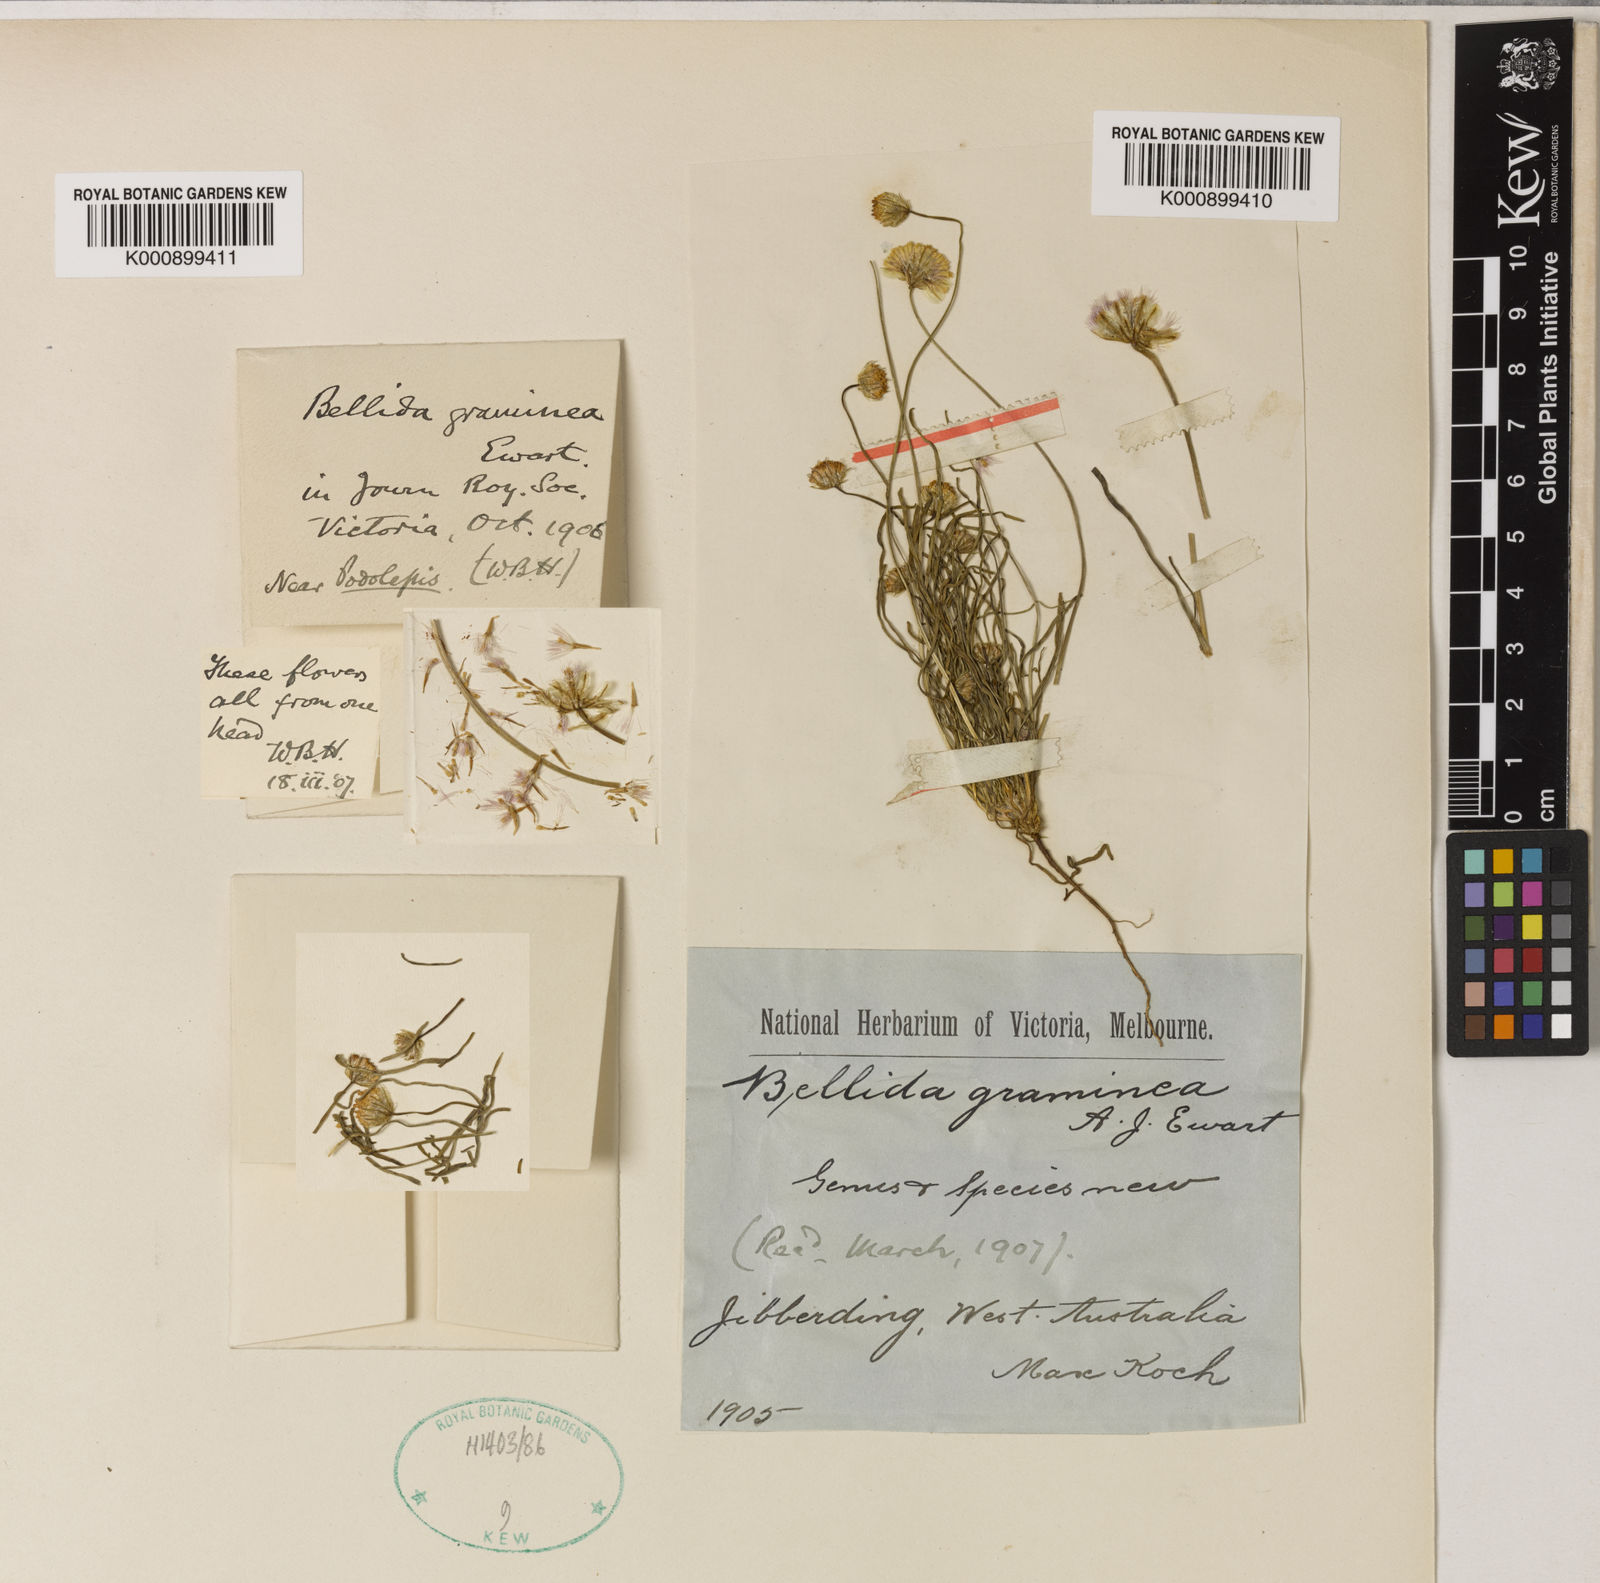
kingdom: Plantae
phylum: Tracheophyta
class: Magnoliopsida
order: Asterales
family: Asteraceae
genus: Bellida
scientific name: Bellida graminea
